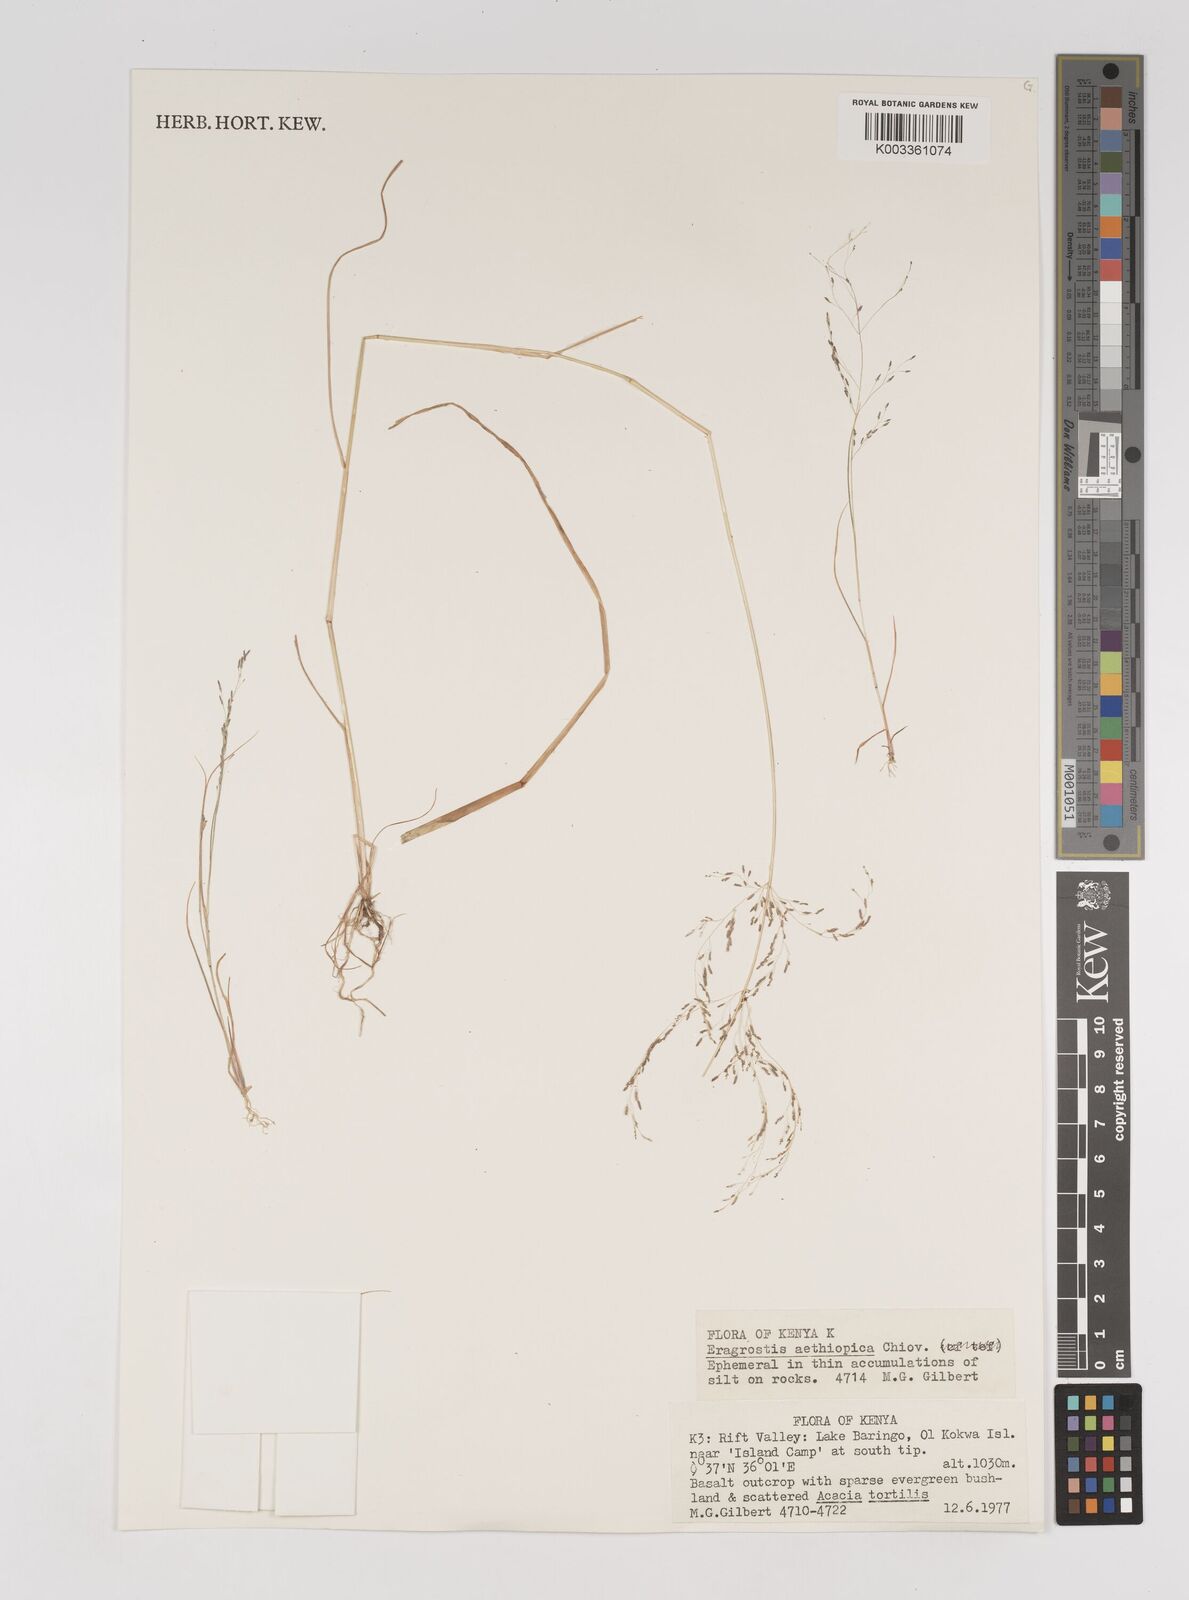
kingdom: Plantae
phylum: Tracheophyta
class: Liliopsida
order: Poales
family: Poaceae
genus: Eragrostis
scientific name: Eragrostis aethiopica
